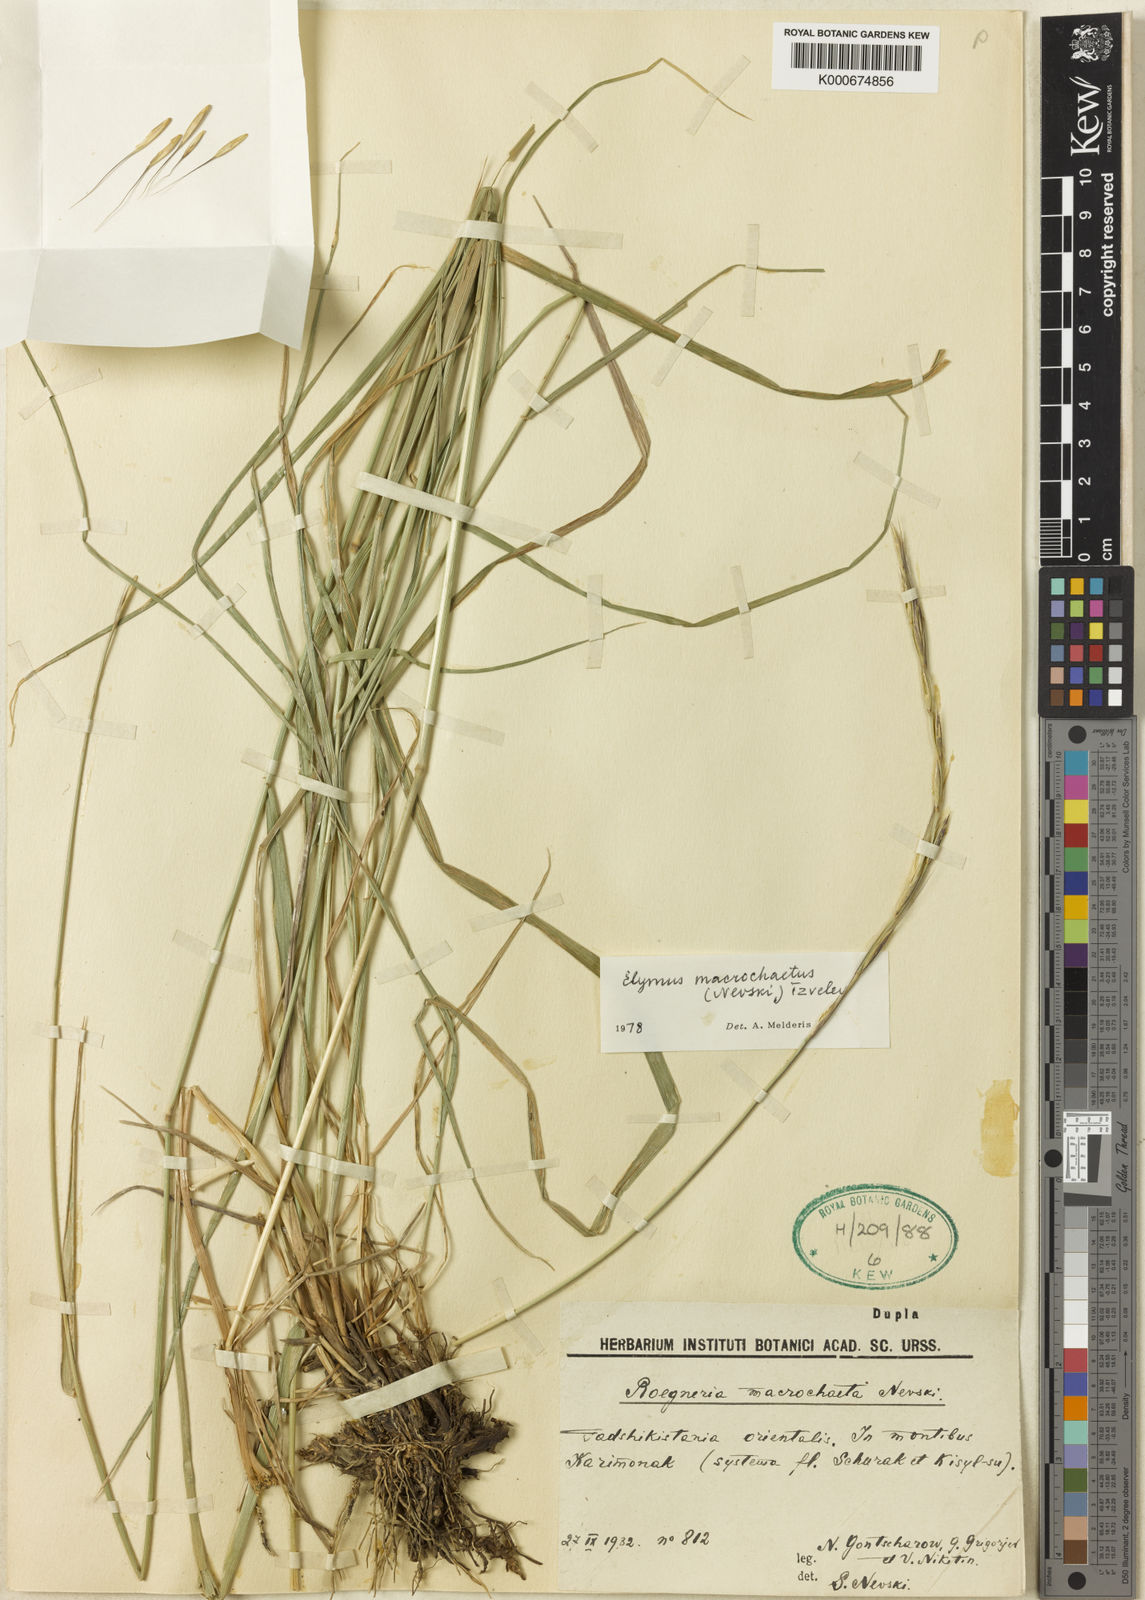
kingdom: Plantae
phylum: Tracheophyta
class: Liliopsida
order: Poales
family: Poaceae
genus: Elymus
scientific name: Elymus macrochaetus
